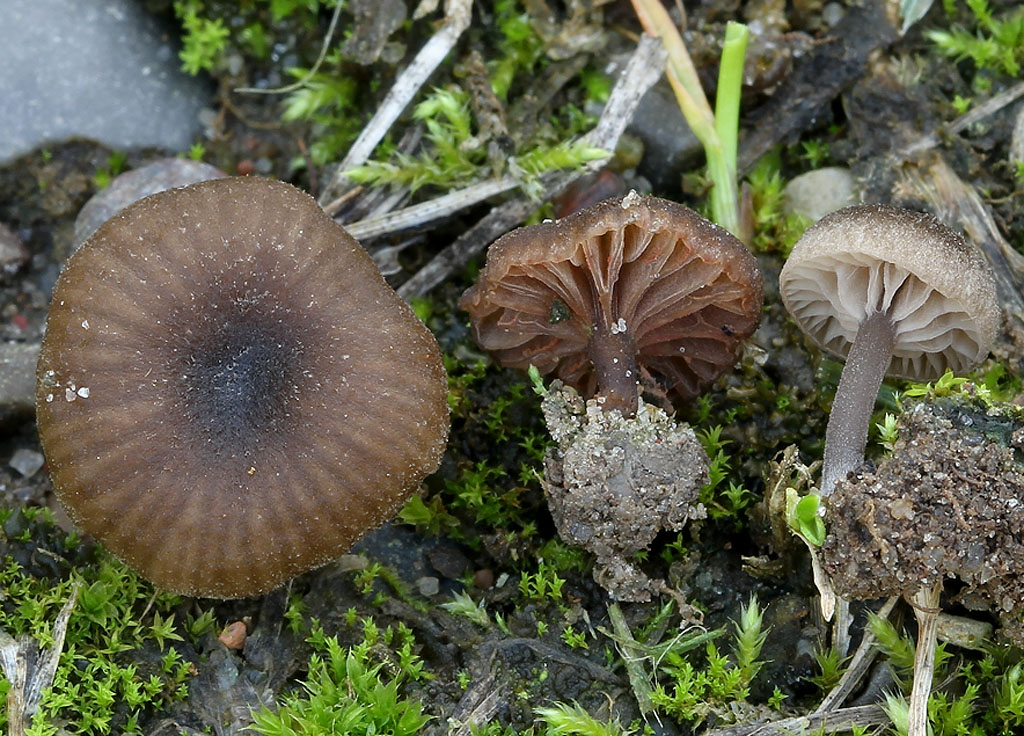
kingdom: Fungi
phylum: Basidiomycota
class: Agaricomycetes
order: Agaricales
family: Entolomataceae
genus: Entoloma
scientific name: Entoloma phaeocyathum
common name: klit-rødblad
